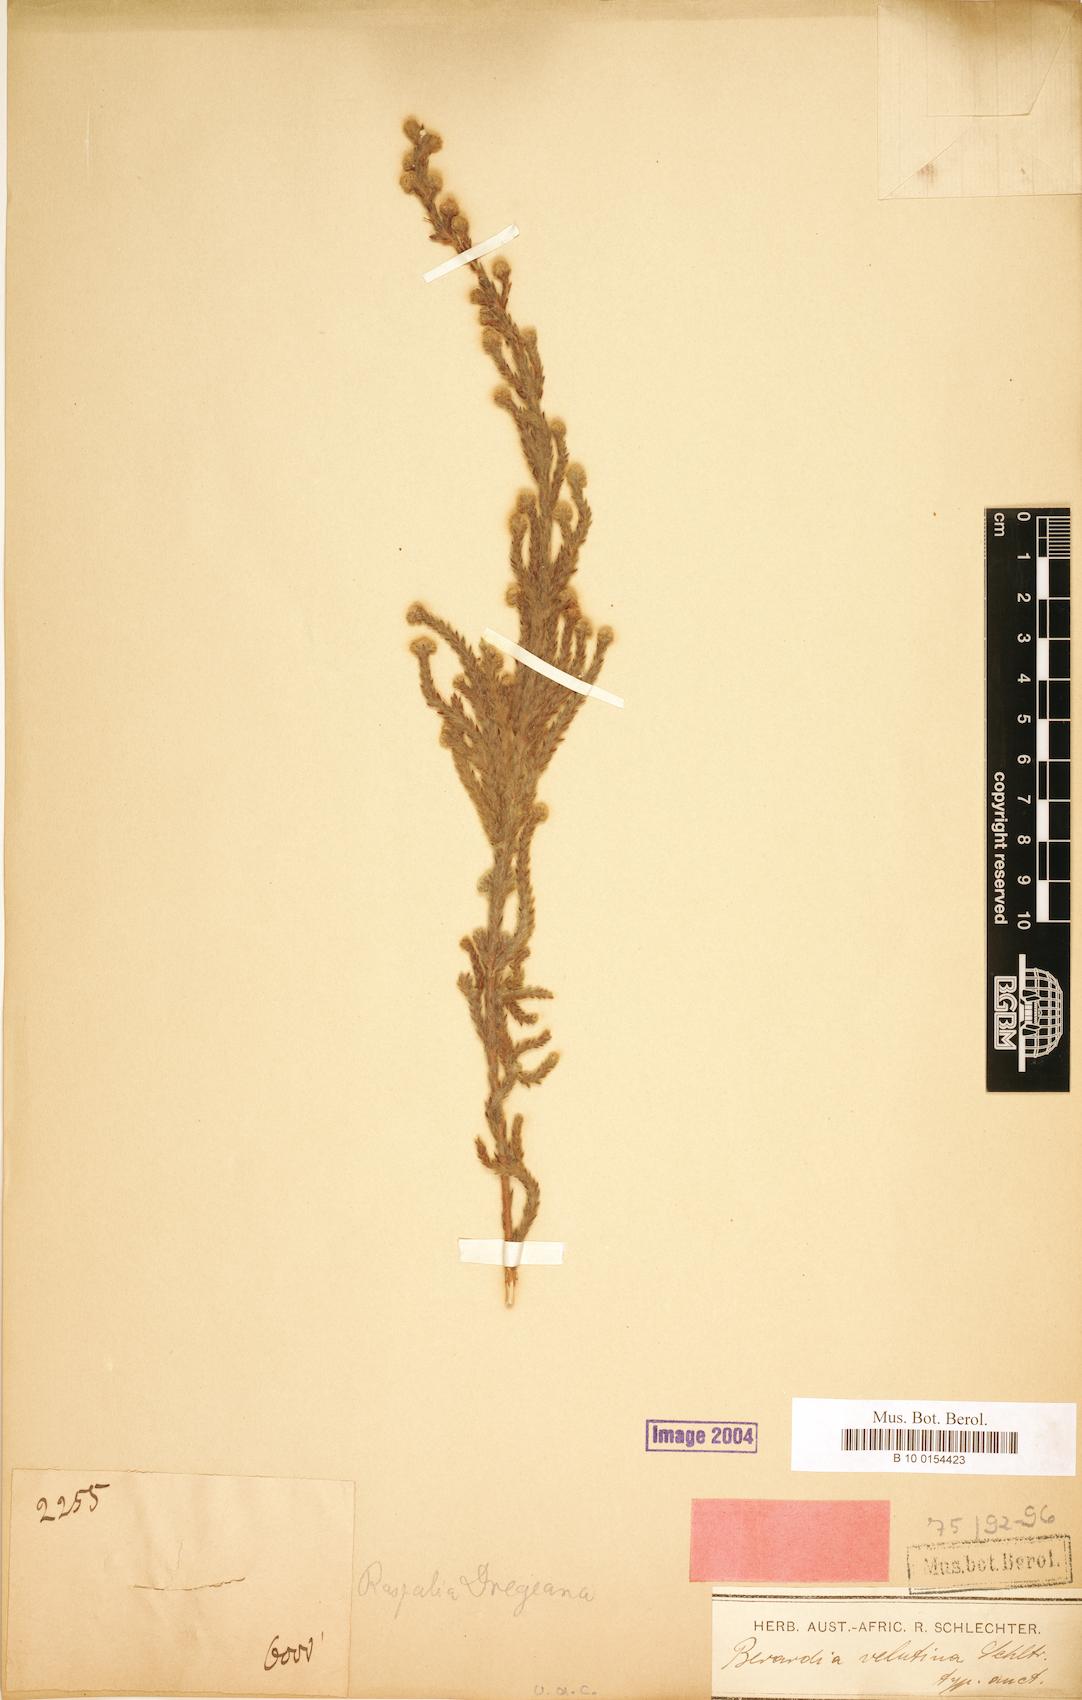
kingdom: Plantae
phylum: Tracheophyta
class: Magnoliopsida
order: Bruniales
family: Bruniaceae
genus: Brunia
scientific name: Brunia dregeana
